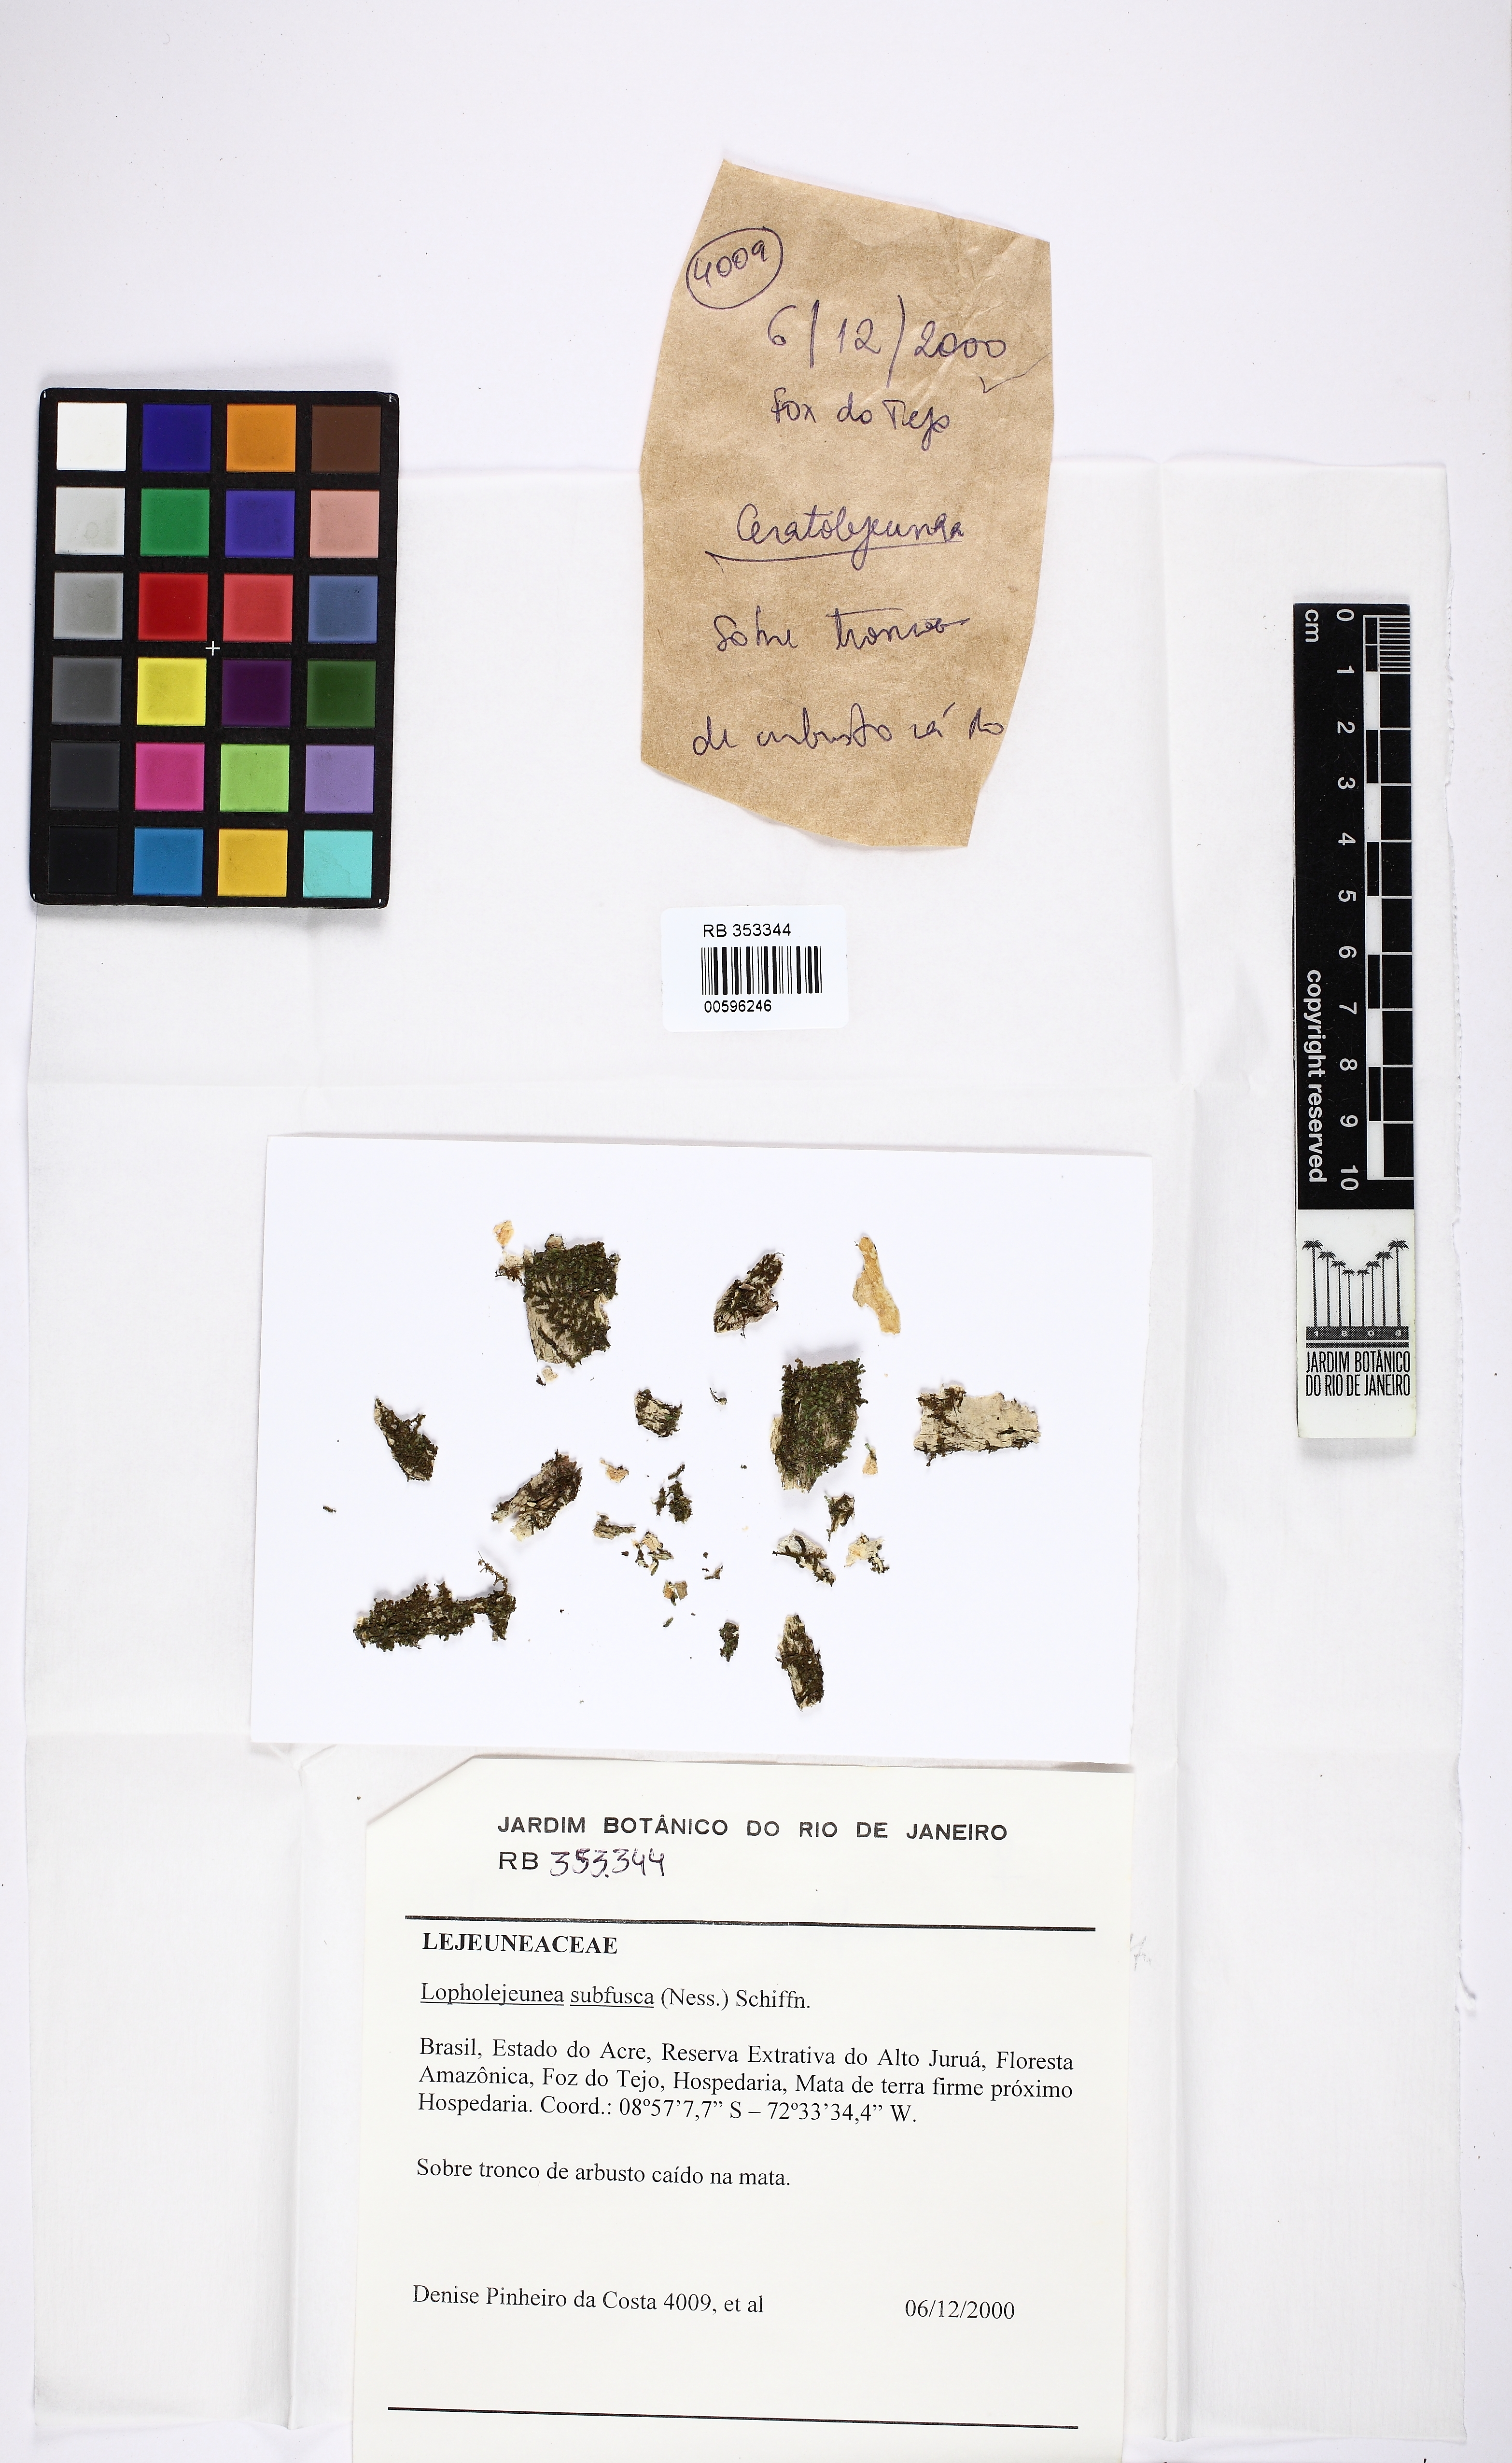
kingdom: Plantae
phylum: Marchantiophyta
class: Jungermanniopsida
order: Porellales
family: Lejeuneaceae
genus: Lopholejeunea
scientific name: Lopholejeunea subfusca
